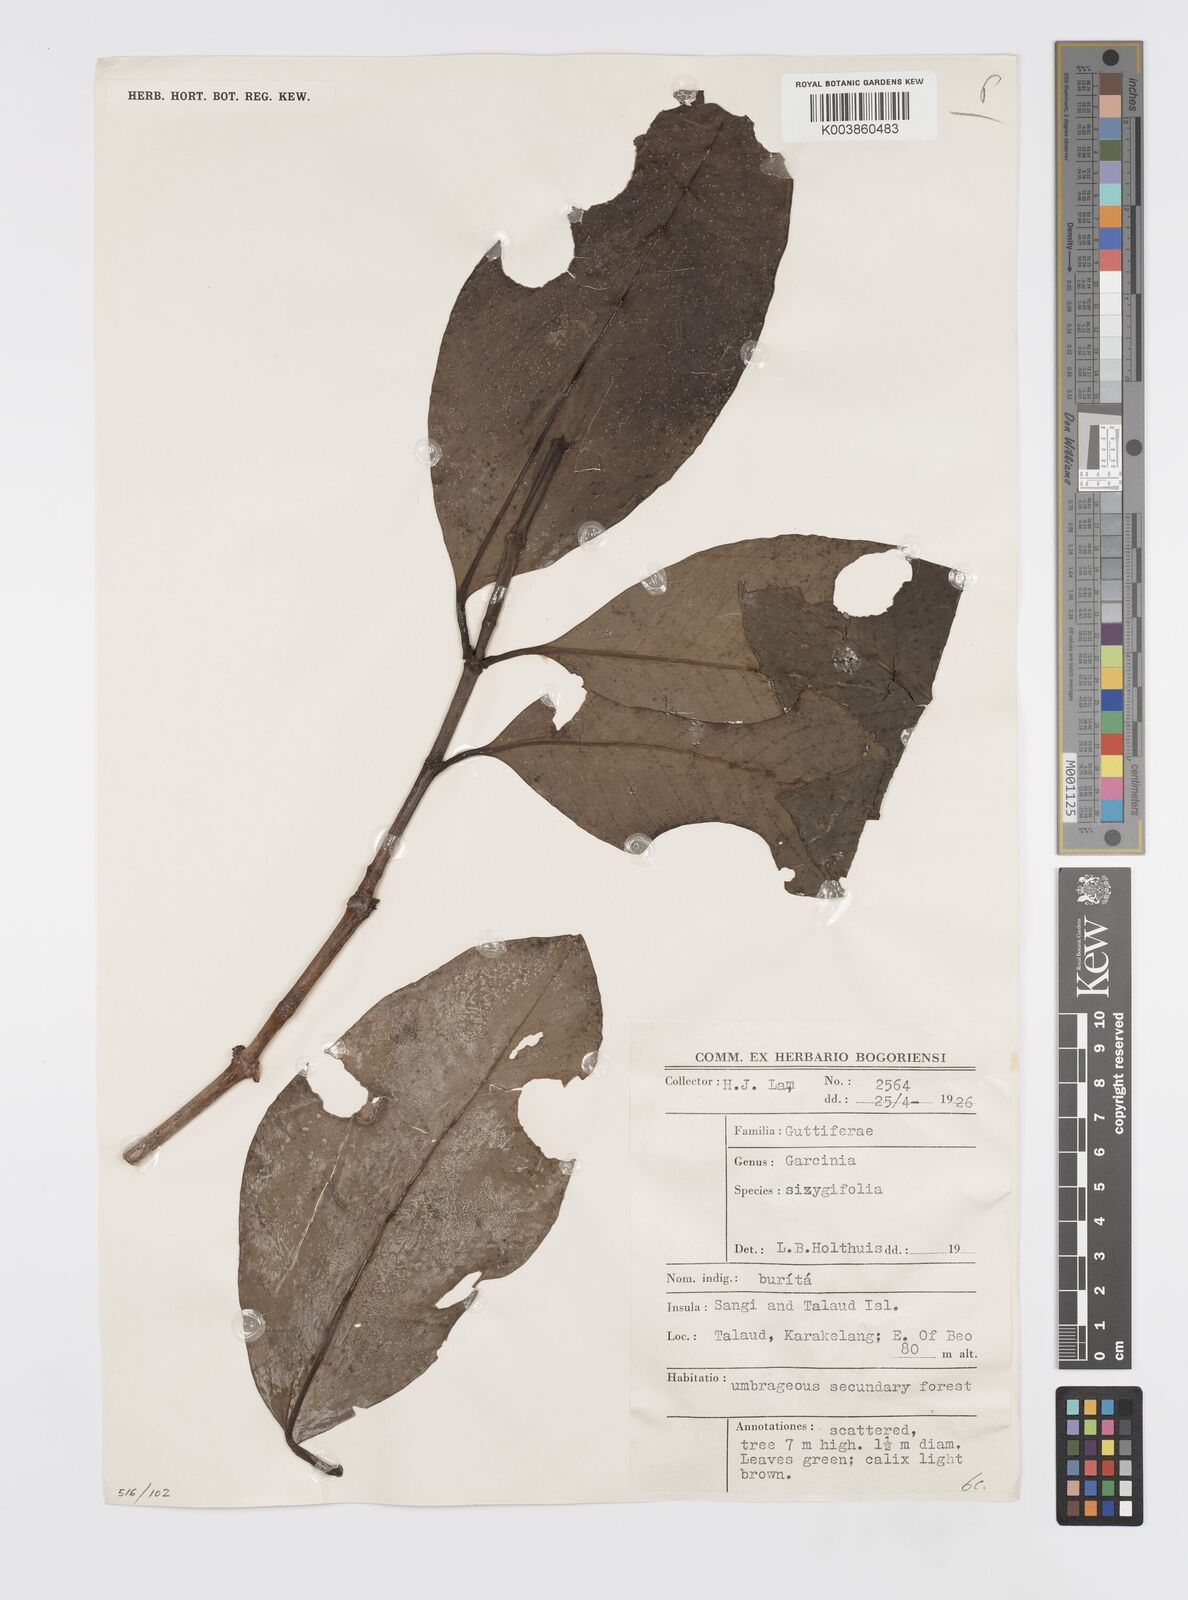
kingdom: Plantae
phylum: Tracheophyta
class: Magnoliopsida
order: Malpighiales
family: Clusiaceae
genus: Garcinia
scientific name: Garcinia sizygiifolia
